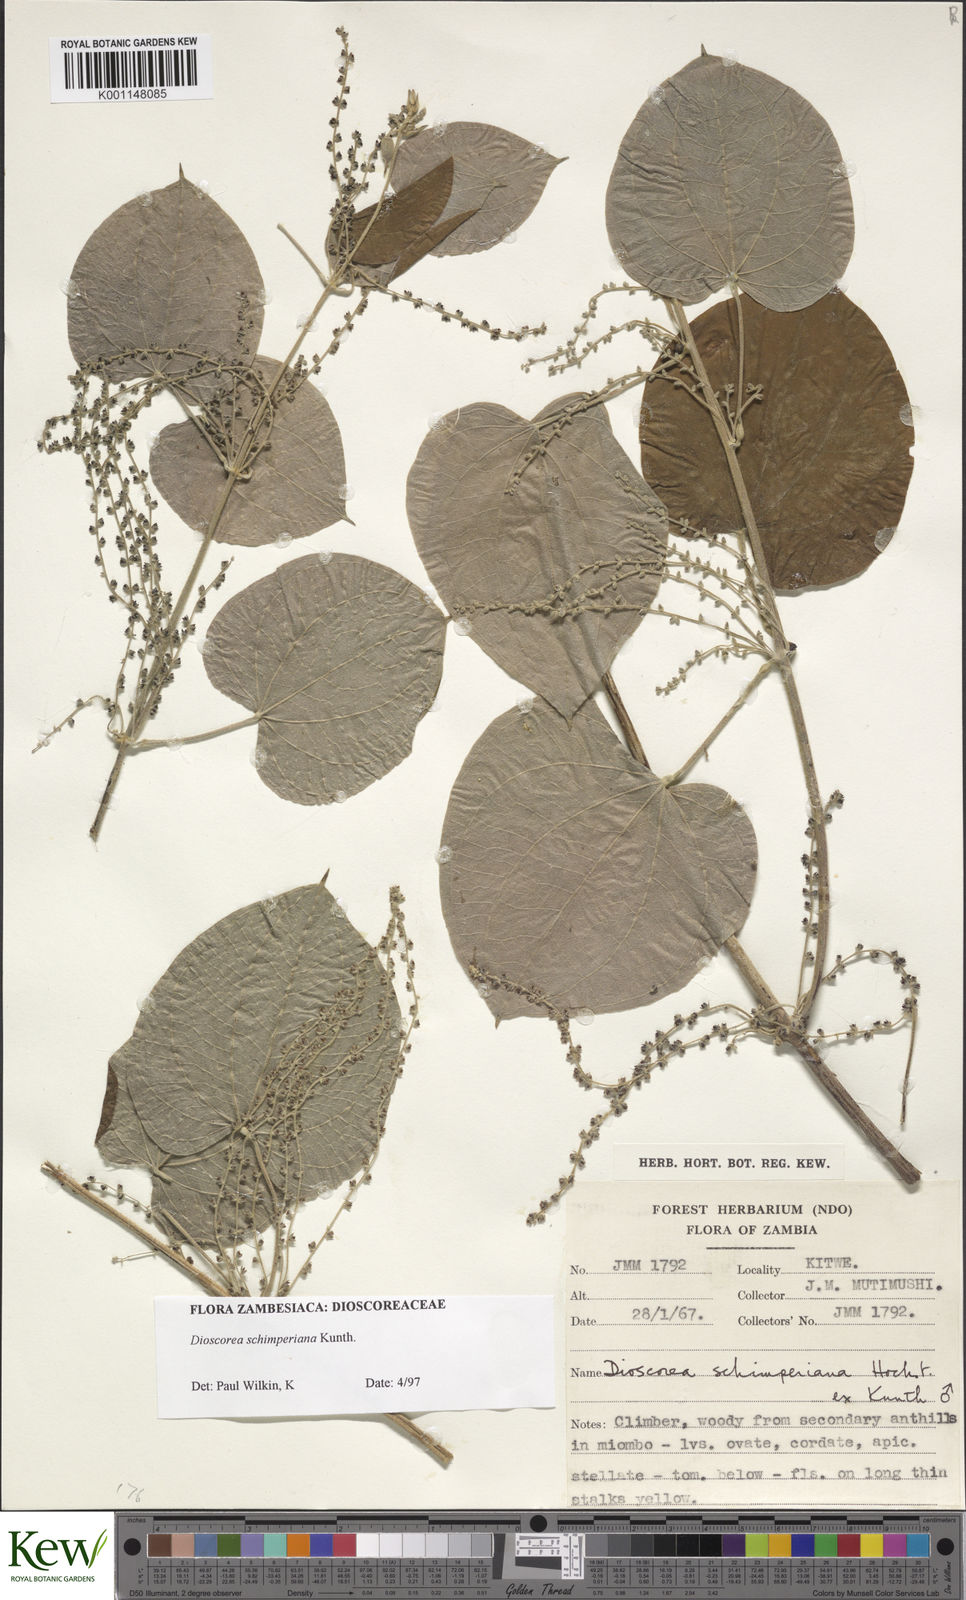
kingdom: Plantae
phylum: Tracheophyta
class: Liliopsida
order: Dioscoreales
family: Dioscoreaceae
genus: Dioscorea
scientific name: Dioscorea schimperiana
